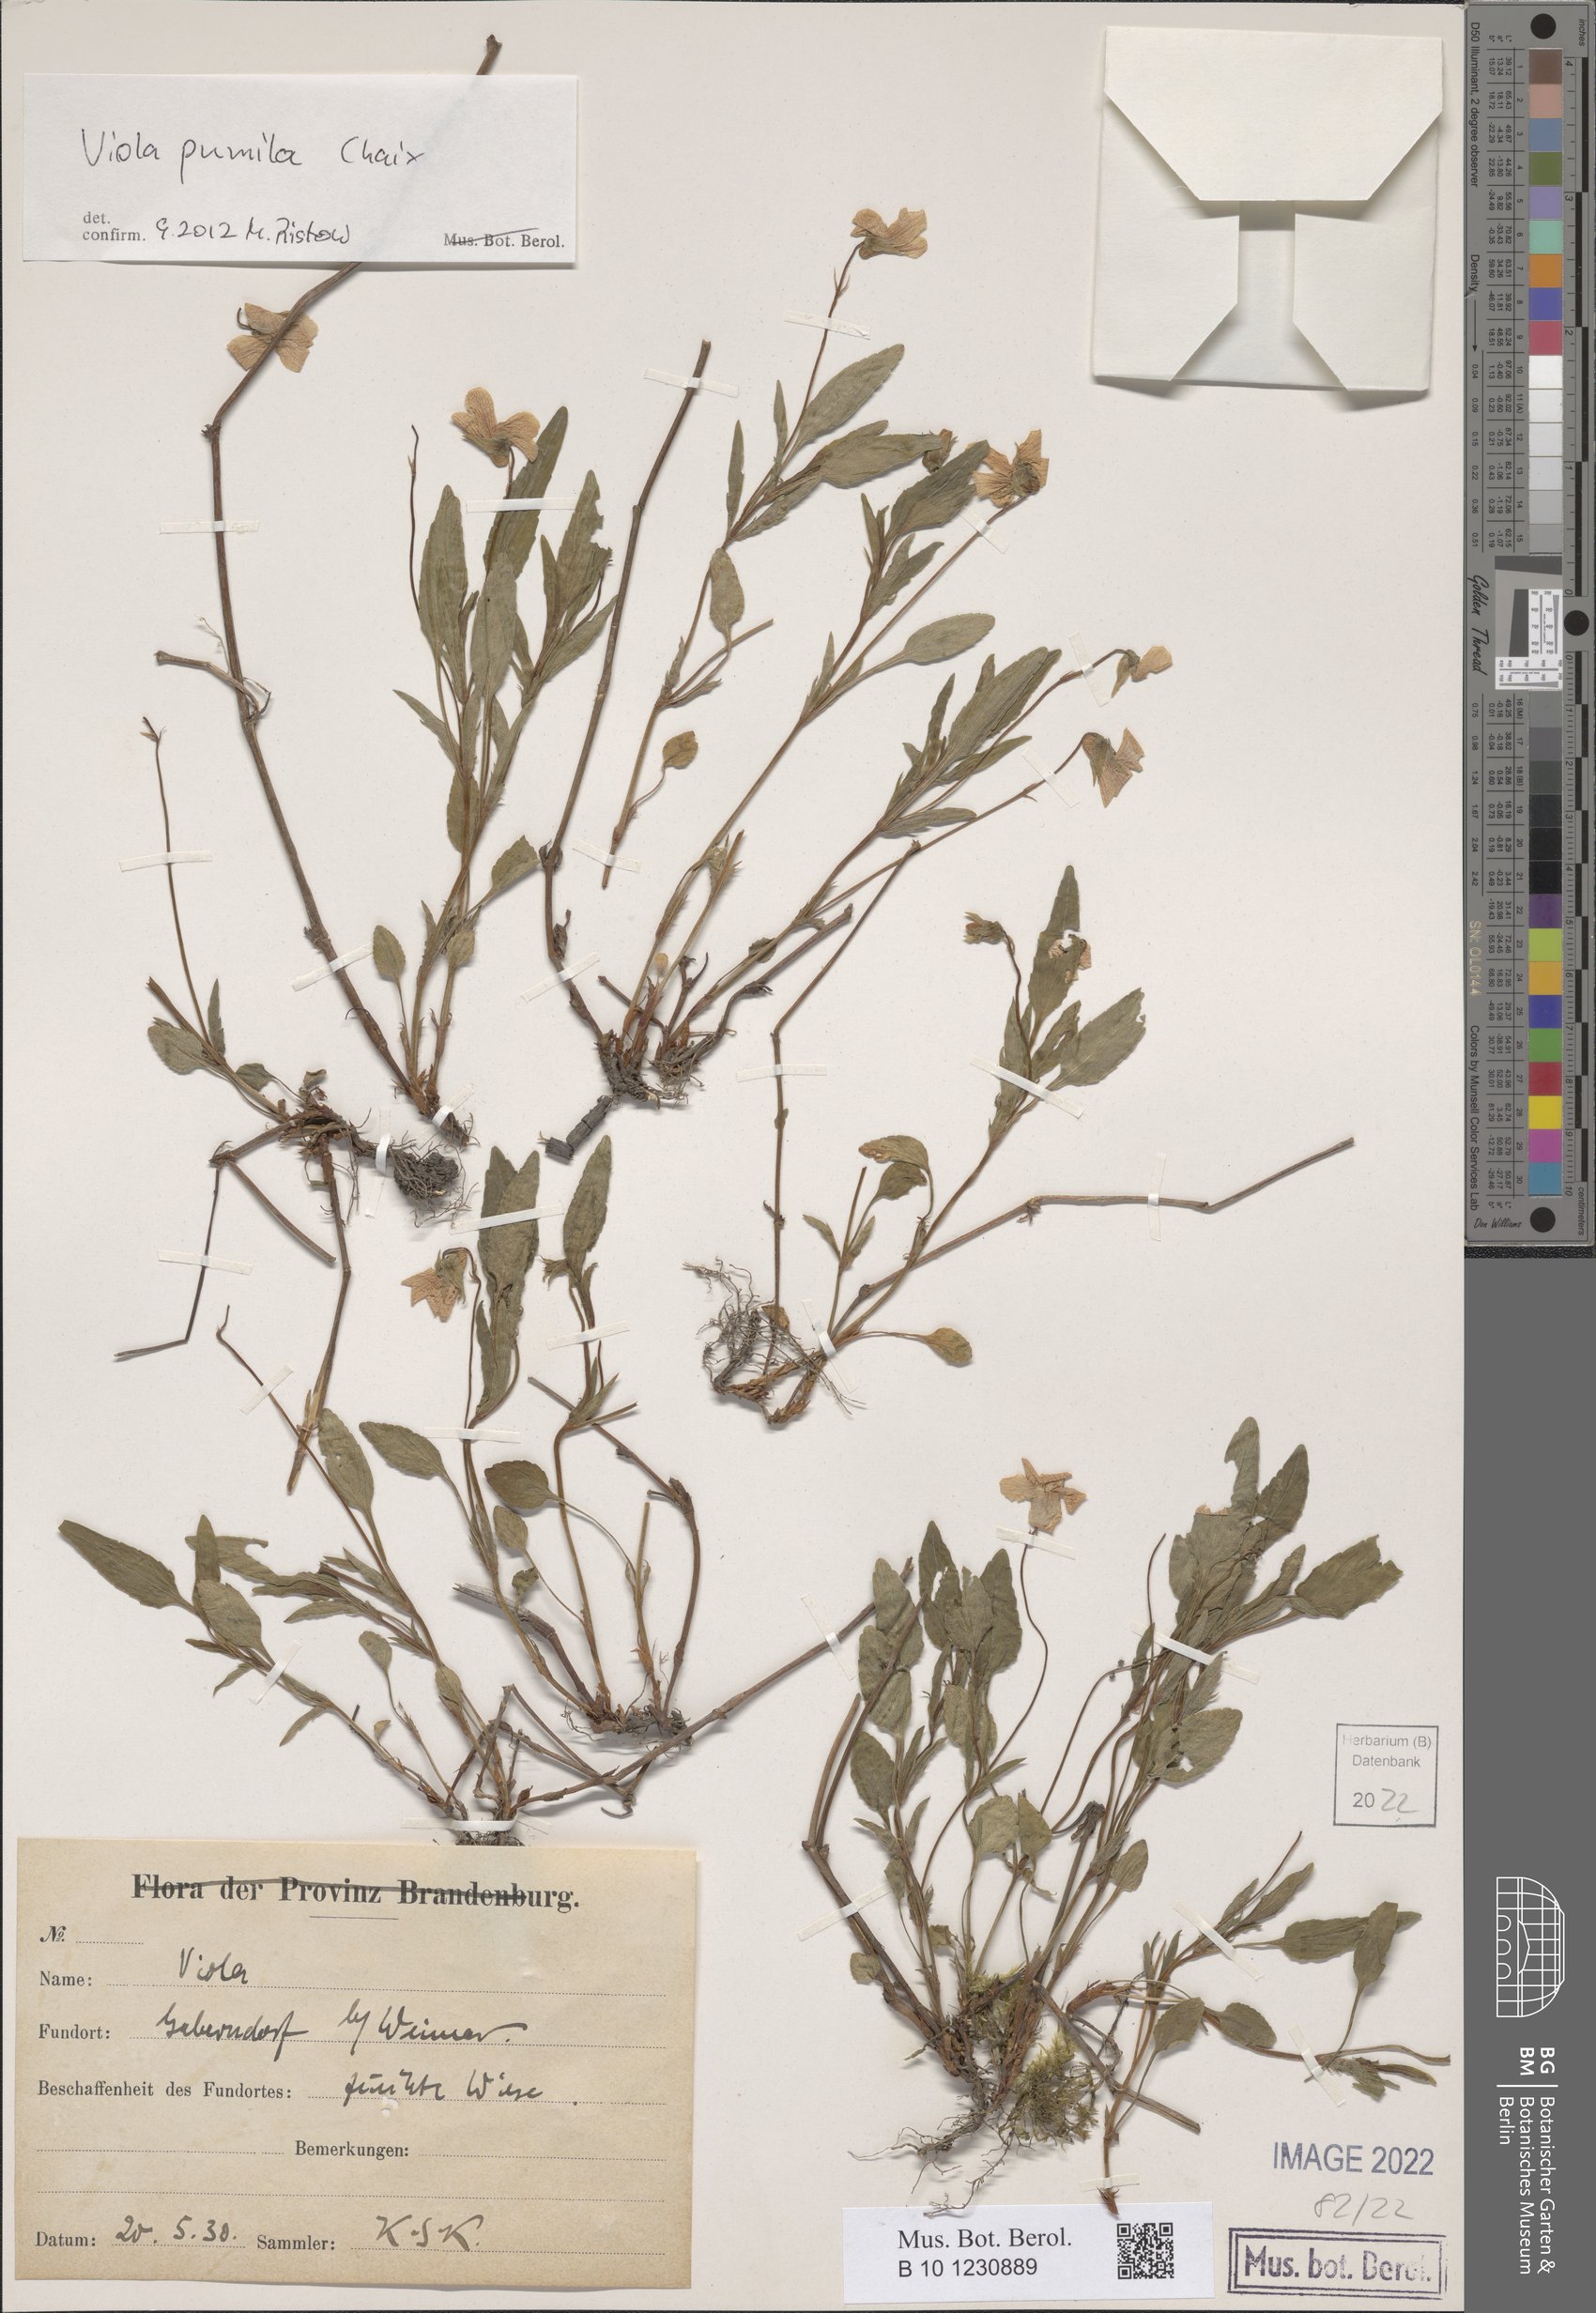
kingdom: Plantae
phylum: Tracheophyta
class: Magnoliopsida
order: Malpighiales
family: Violaceae
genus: Viola
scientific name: Viola pumila
